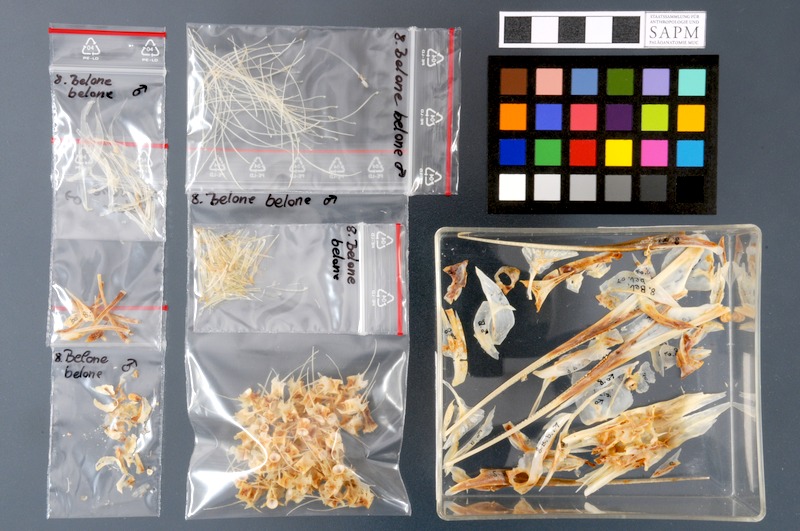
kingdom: Animalia
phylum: Chordata
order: Beloniformes
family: Belonidae
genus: Belone
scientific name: Belone belone
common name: Garfish
